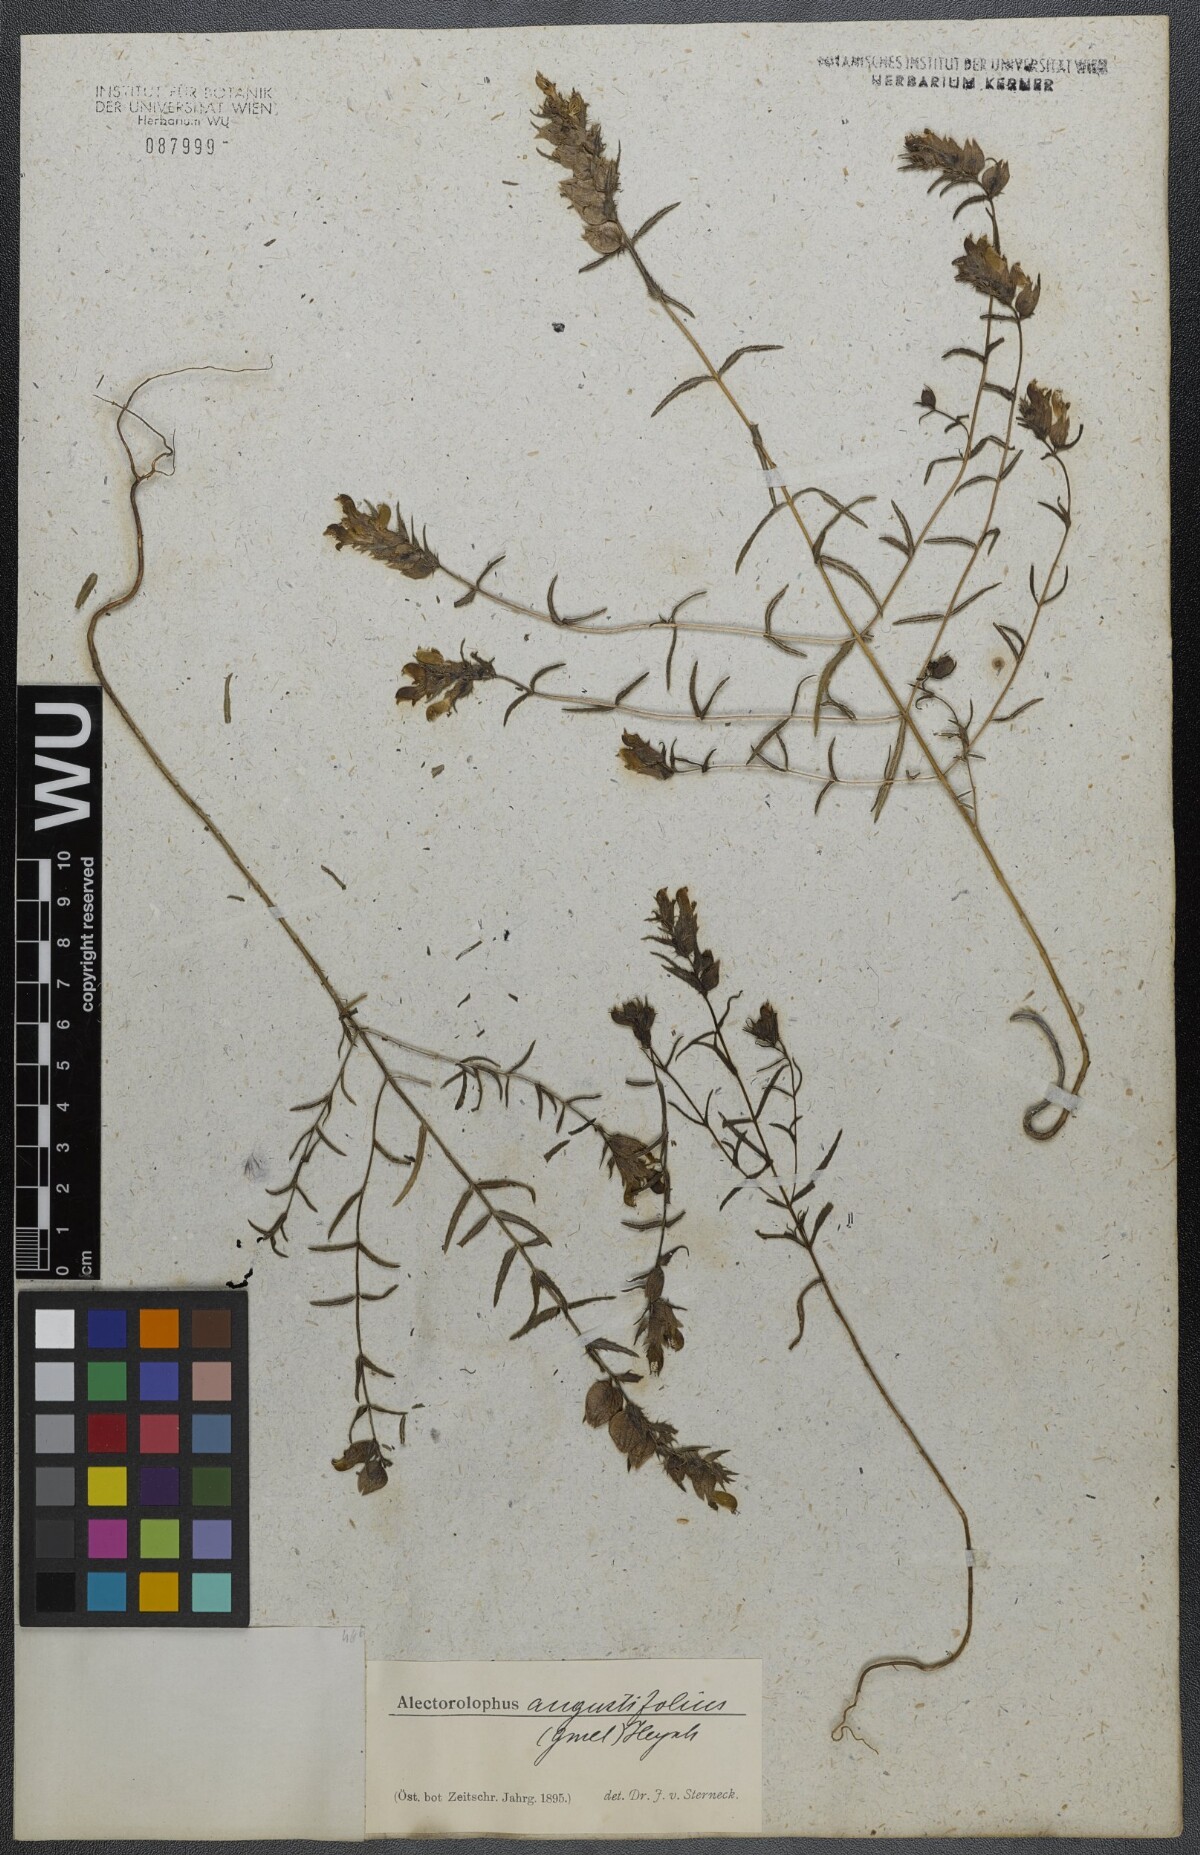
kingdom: Plantae
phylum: Tracheophyta
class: Magnoliopsida
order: Lamiales
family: Orobanchaceae
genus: Rhinanthus
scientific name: Rhinanthus
